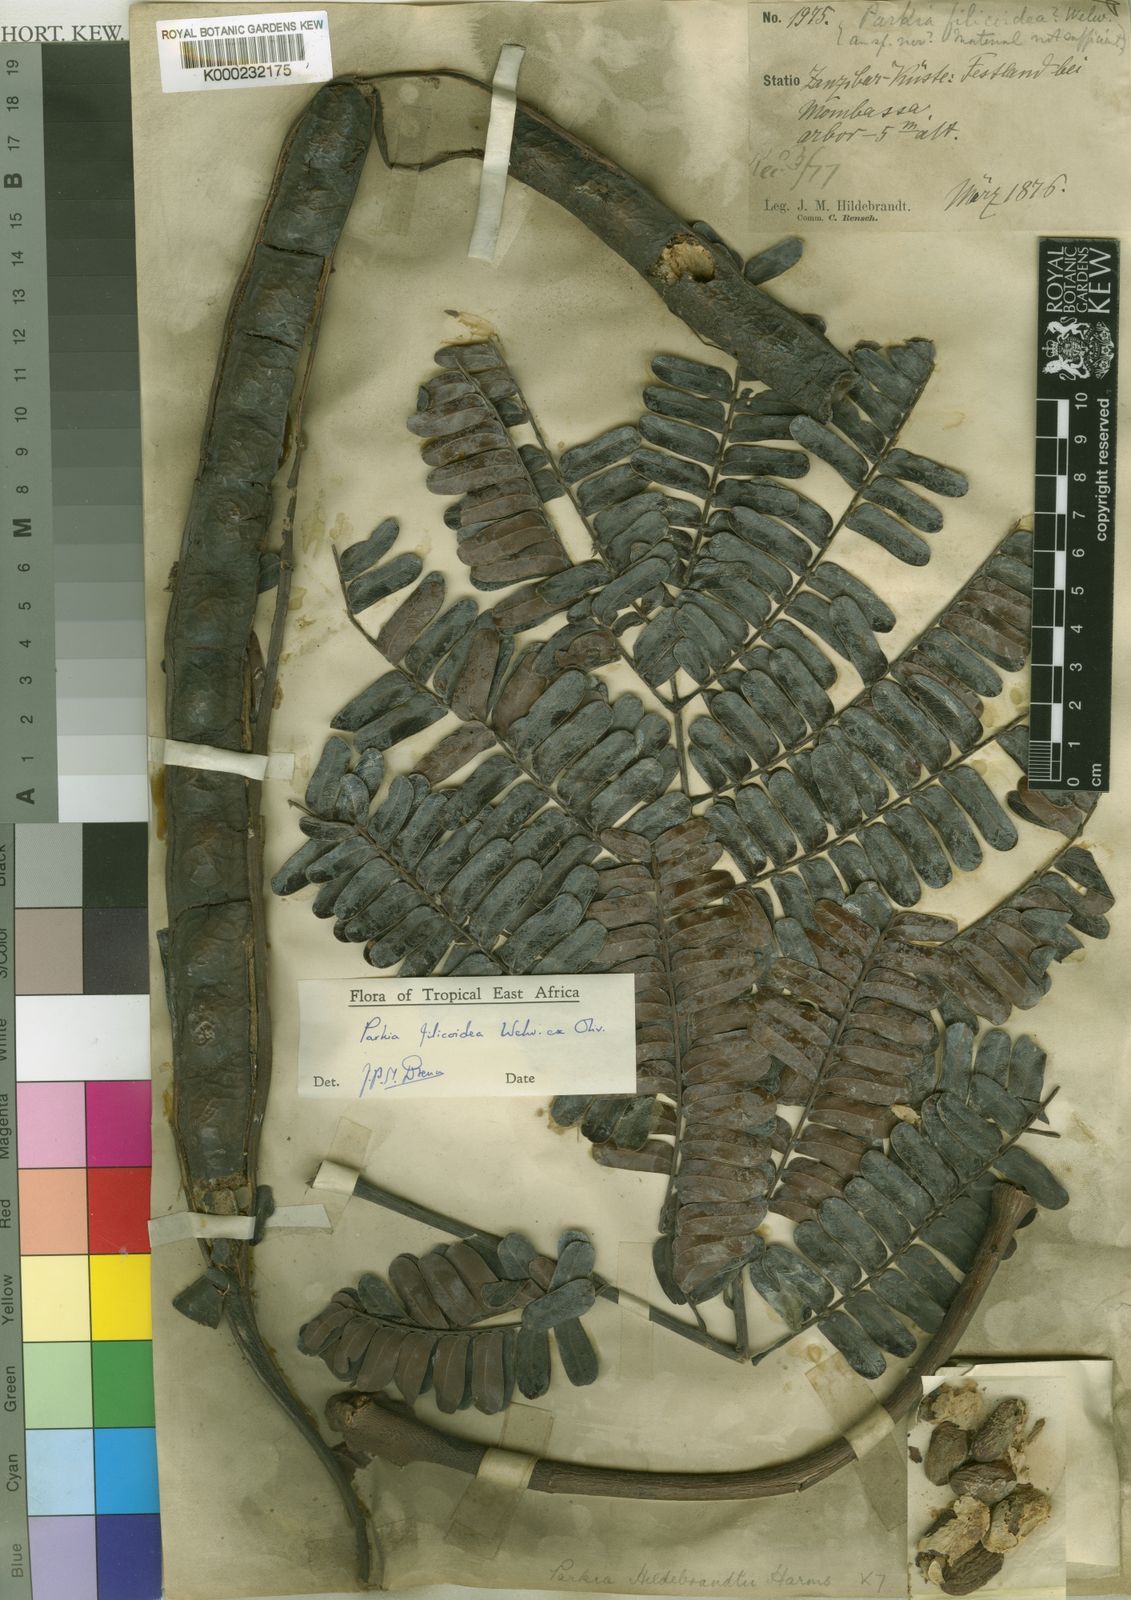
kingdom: Plantae
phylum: Tracheophyta
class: Magnoliopsida
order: Fabales
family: Fabaceae
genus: Parkia
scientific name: Parkia filicoidea
